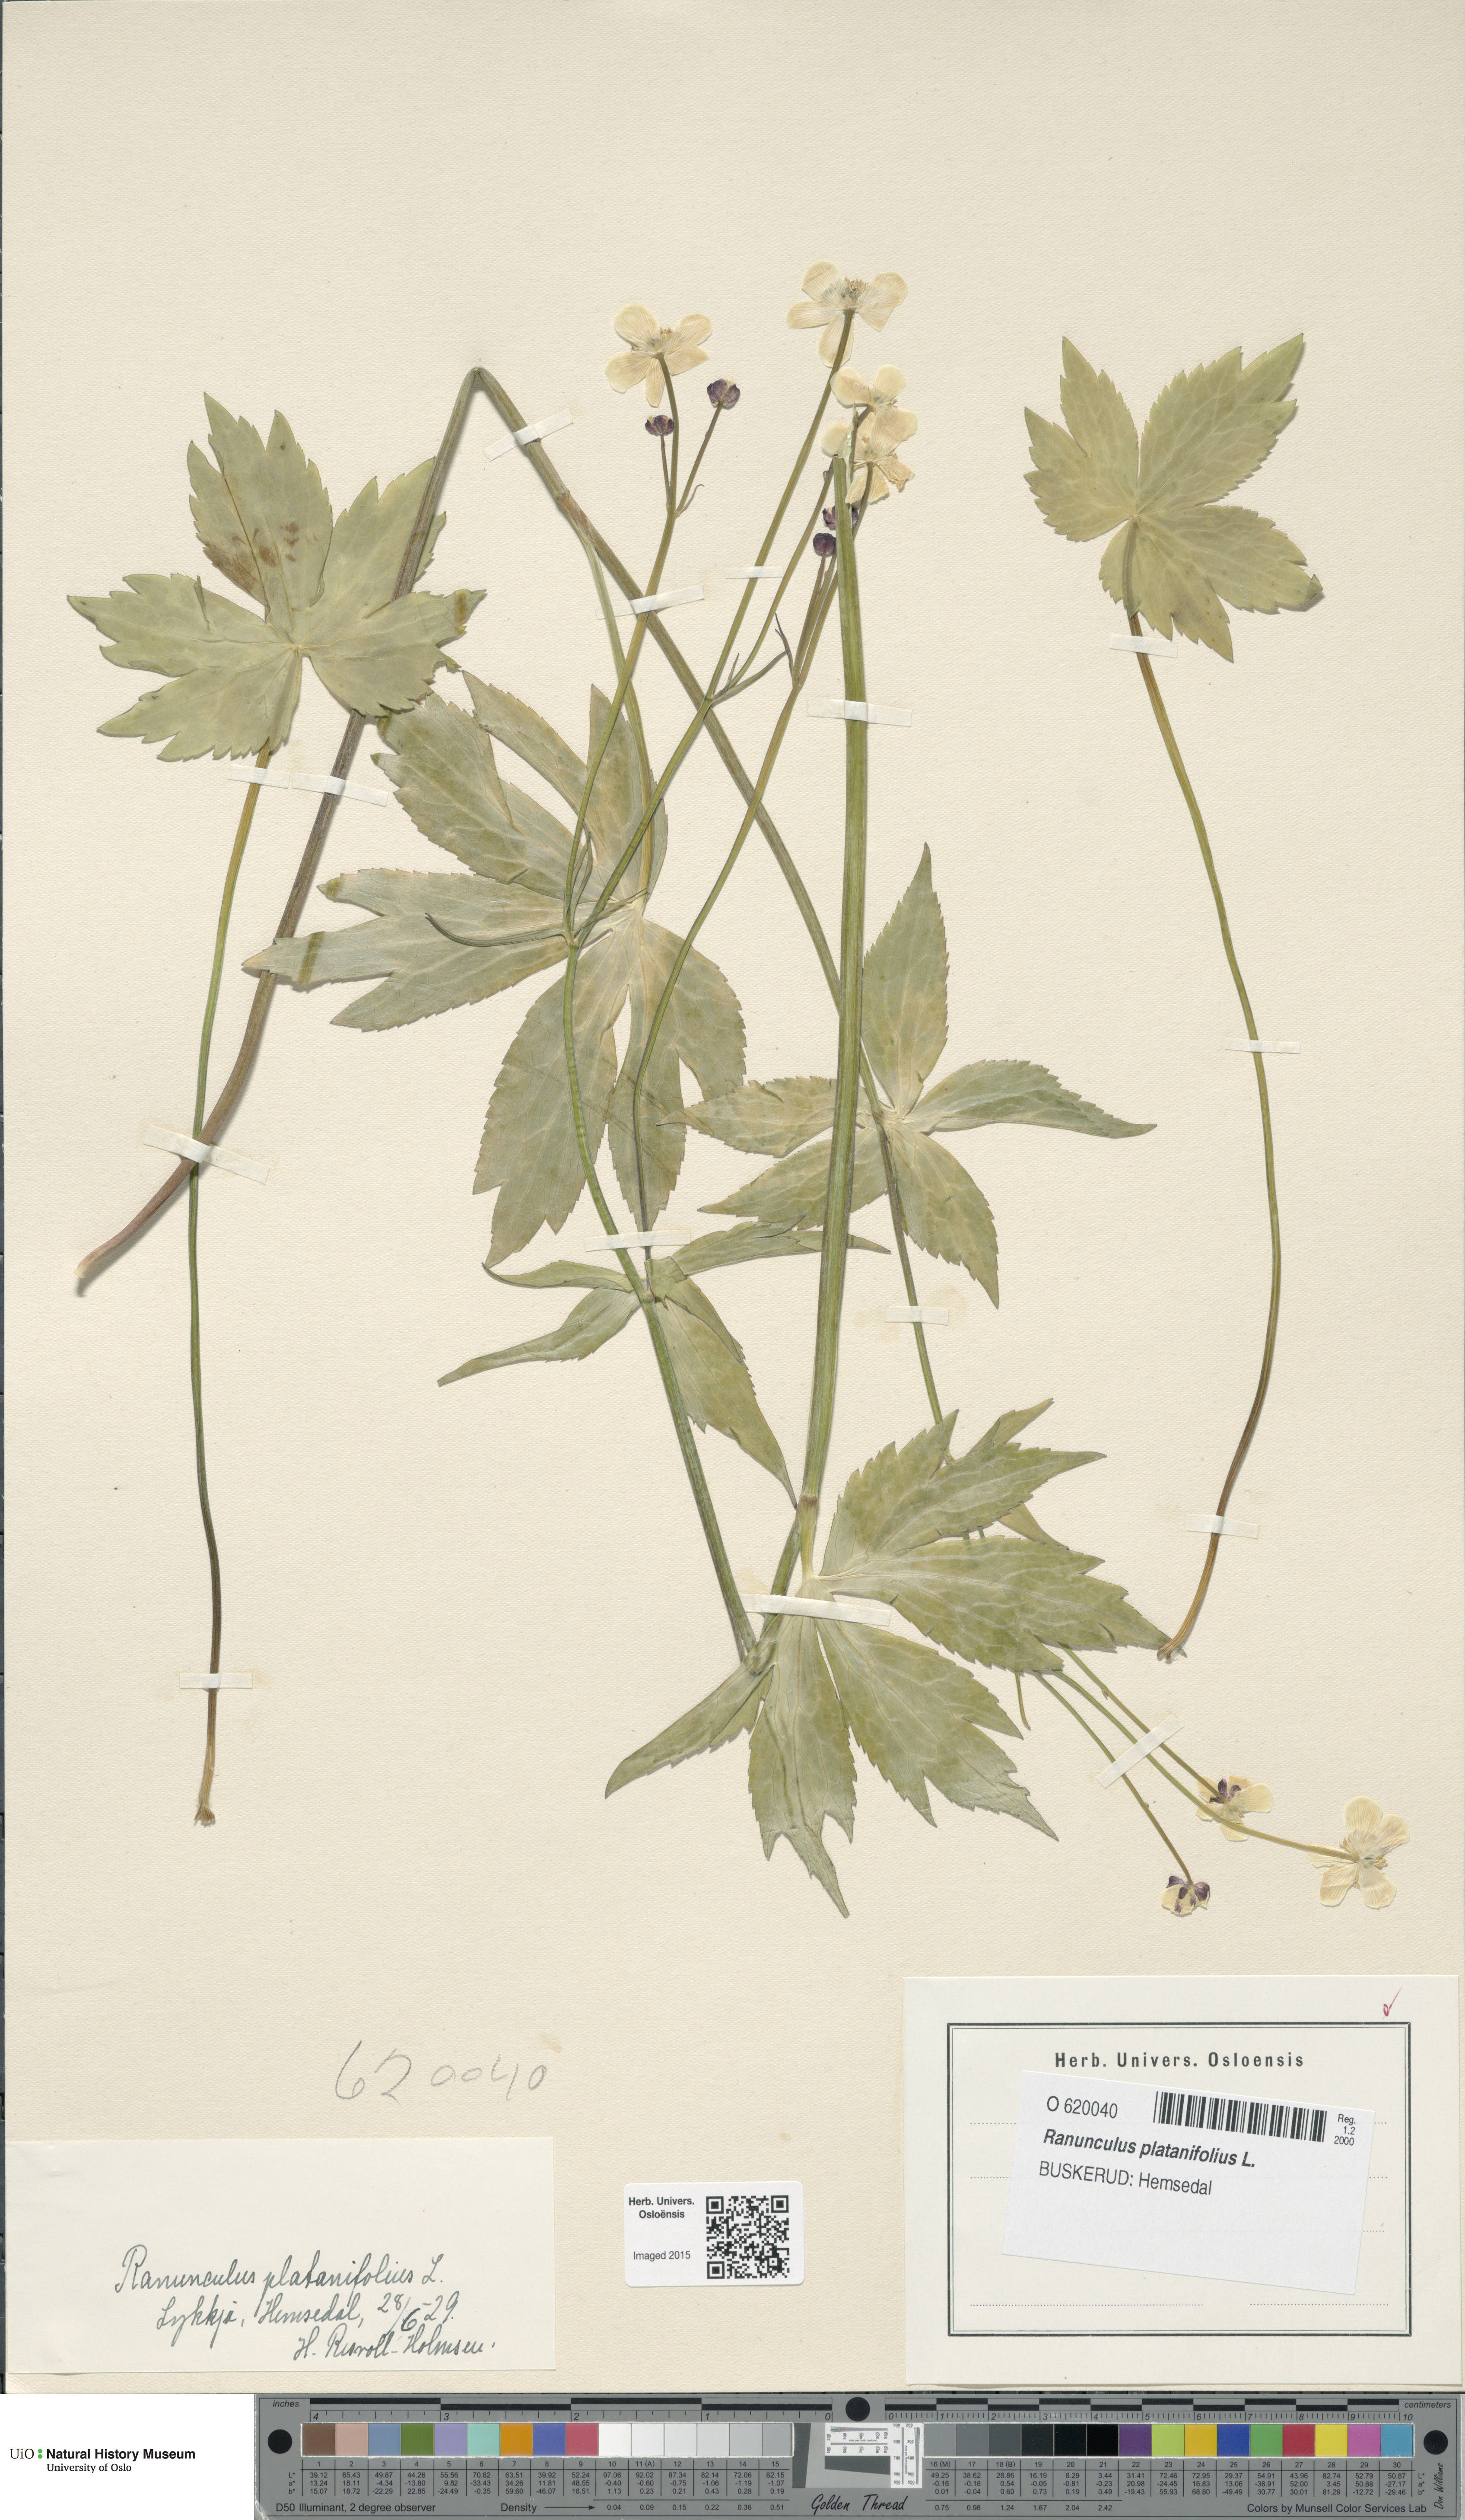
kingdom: Plantae
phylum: Tracheophyta
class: Magnoliopsida
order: Ranunculales
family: Ranunculaceae
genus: Ranunculus
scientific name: Ranunculus platanifolius
